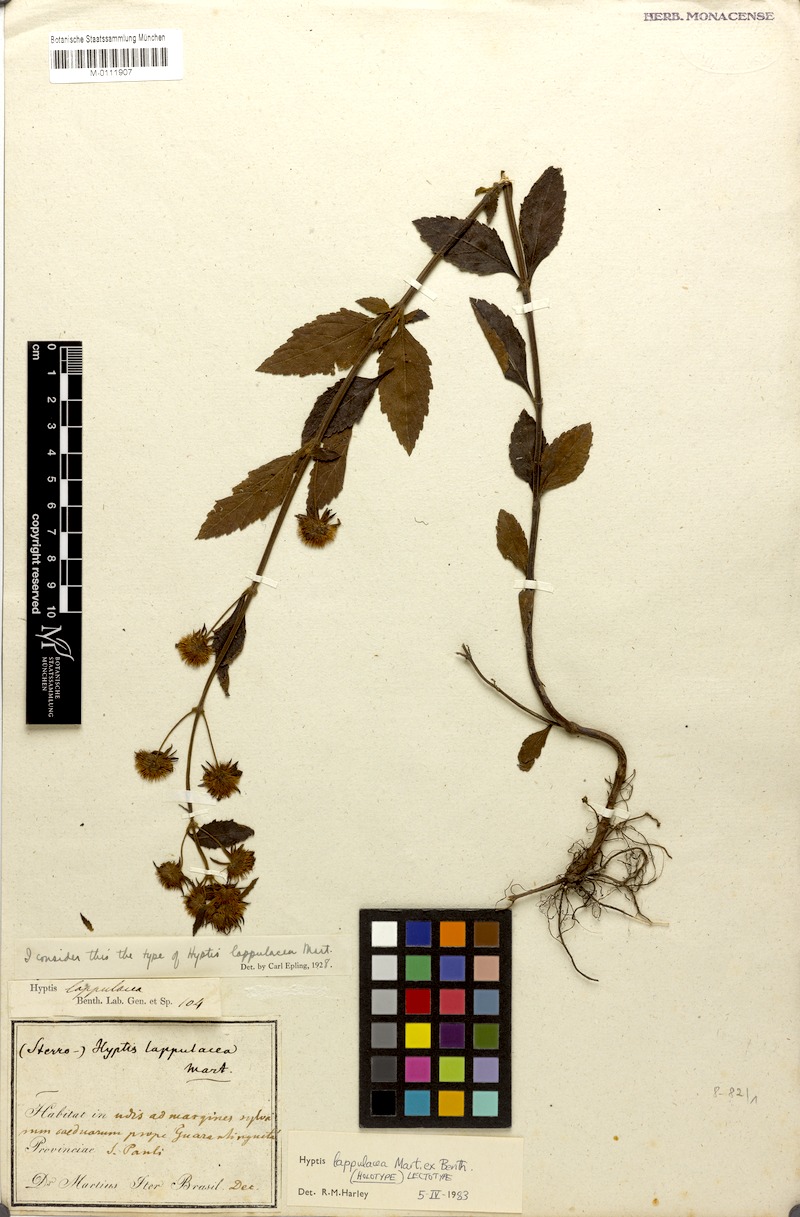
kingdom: Plantae
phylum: Tracheophyta
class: Magnoliopsida
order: Lamiales
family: Lamiaceae
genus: Hyptis
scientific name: Hyptis lappulacea
